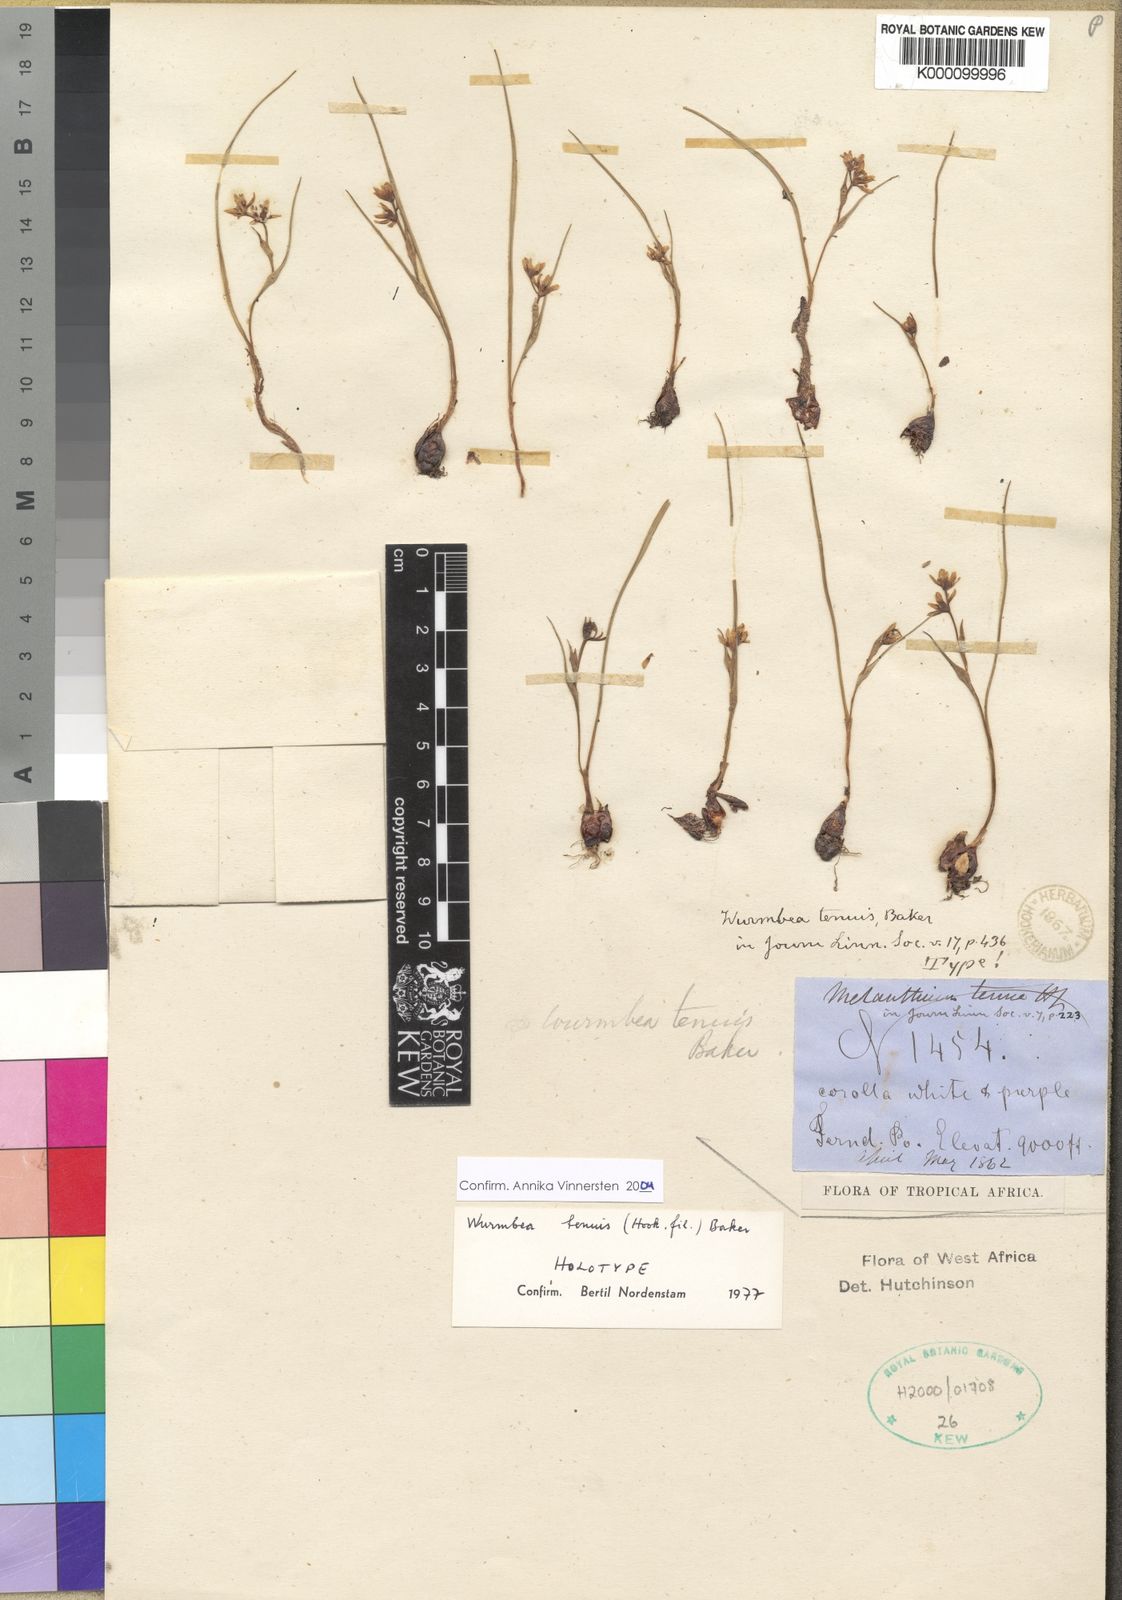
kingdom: Plantae
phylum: Tracheophyta
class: Liliopsida
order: Liliales
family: Colchicaceae
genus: Wurmbea
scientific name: Wurmbea tenuis
